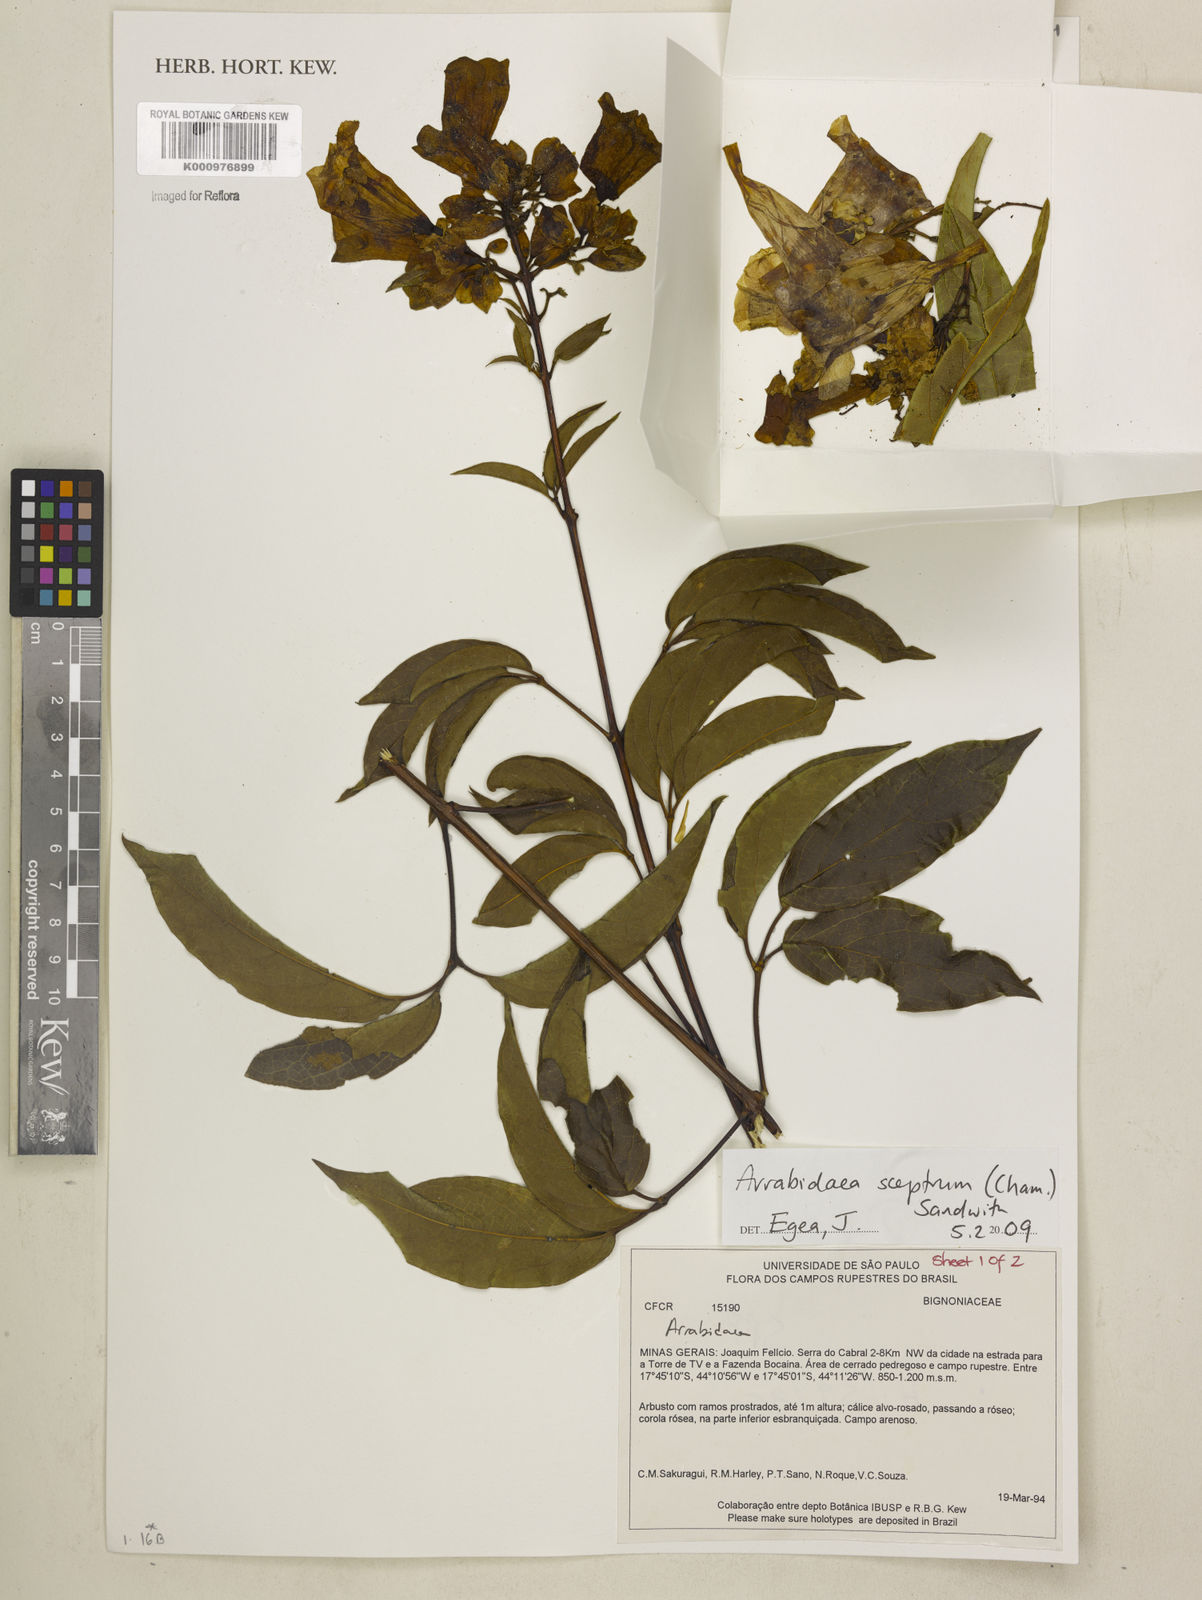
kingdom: Plantae
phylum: Tracheophyta
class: Magnoliopsida
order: Lamiales
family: Bignoniaceae
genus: Cuspidaria
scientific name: Cuspidaria sceptrum
